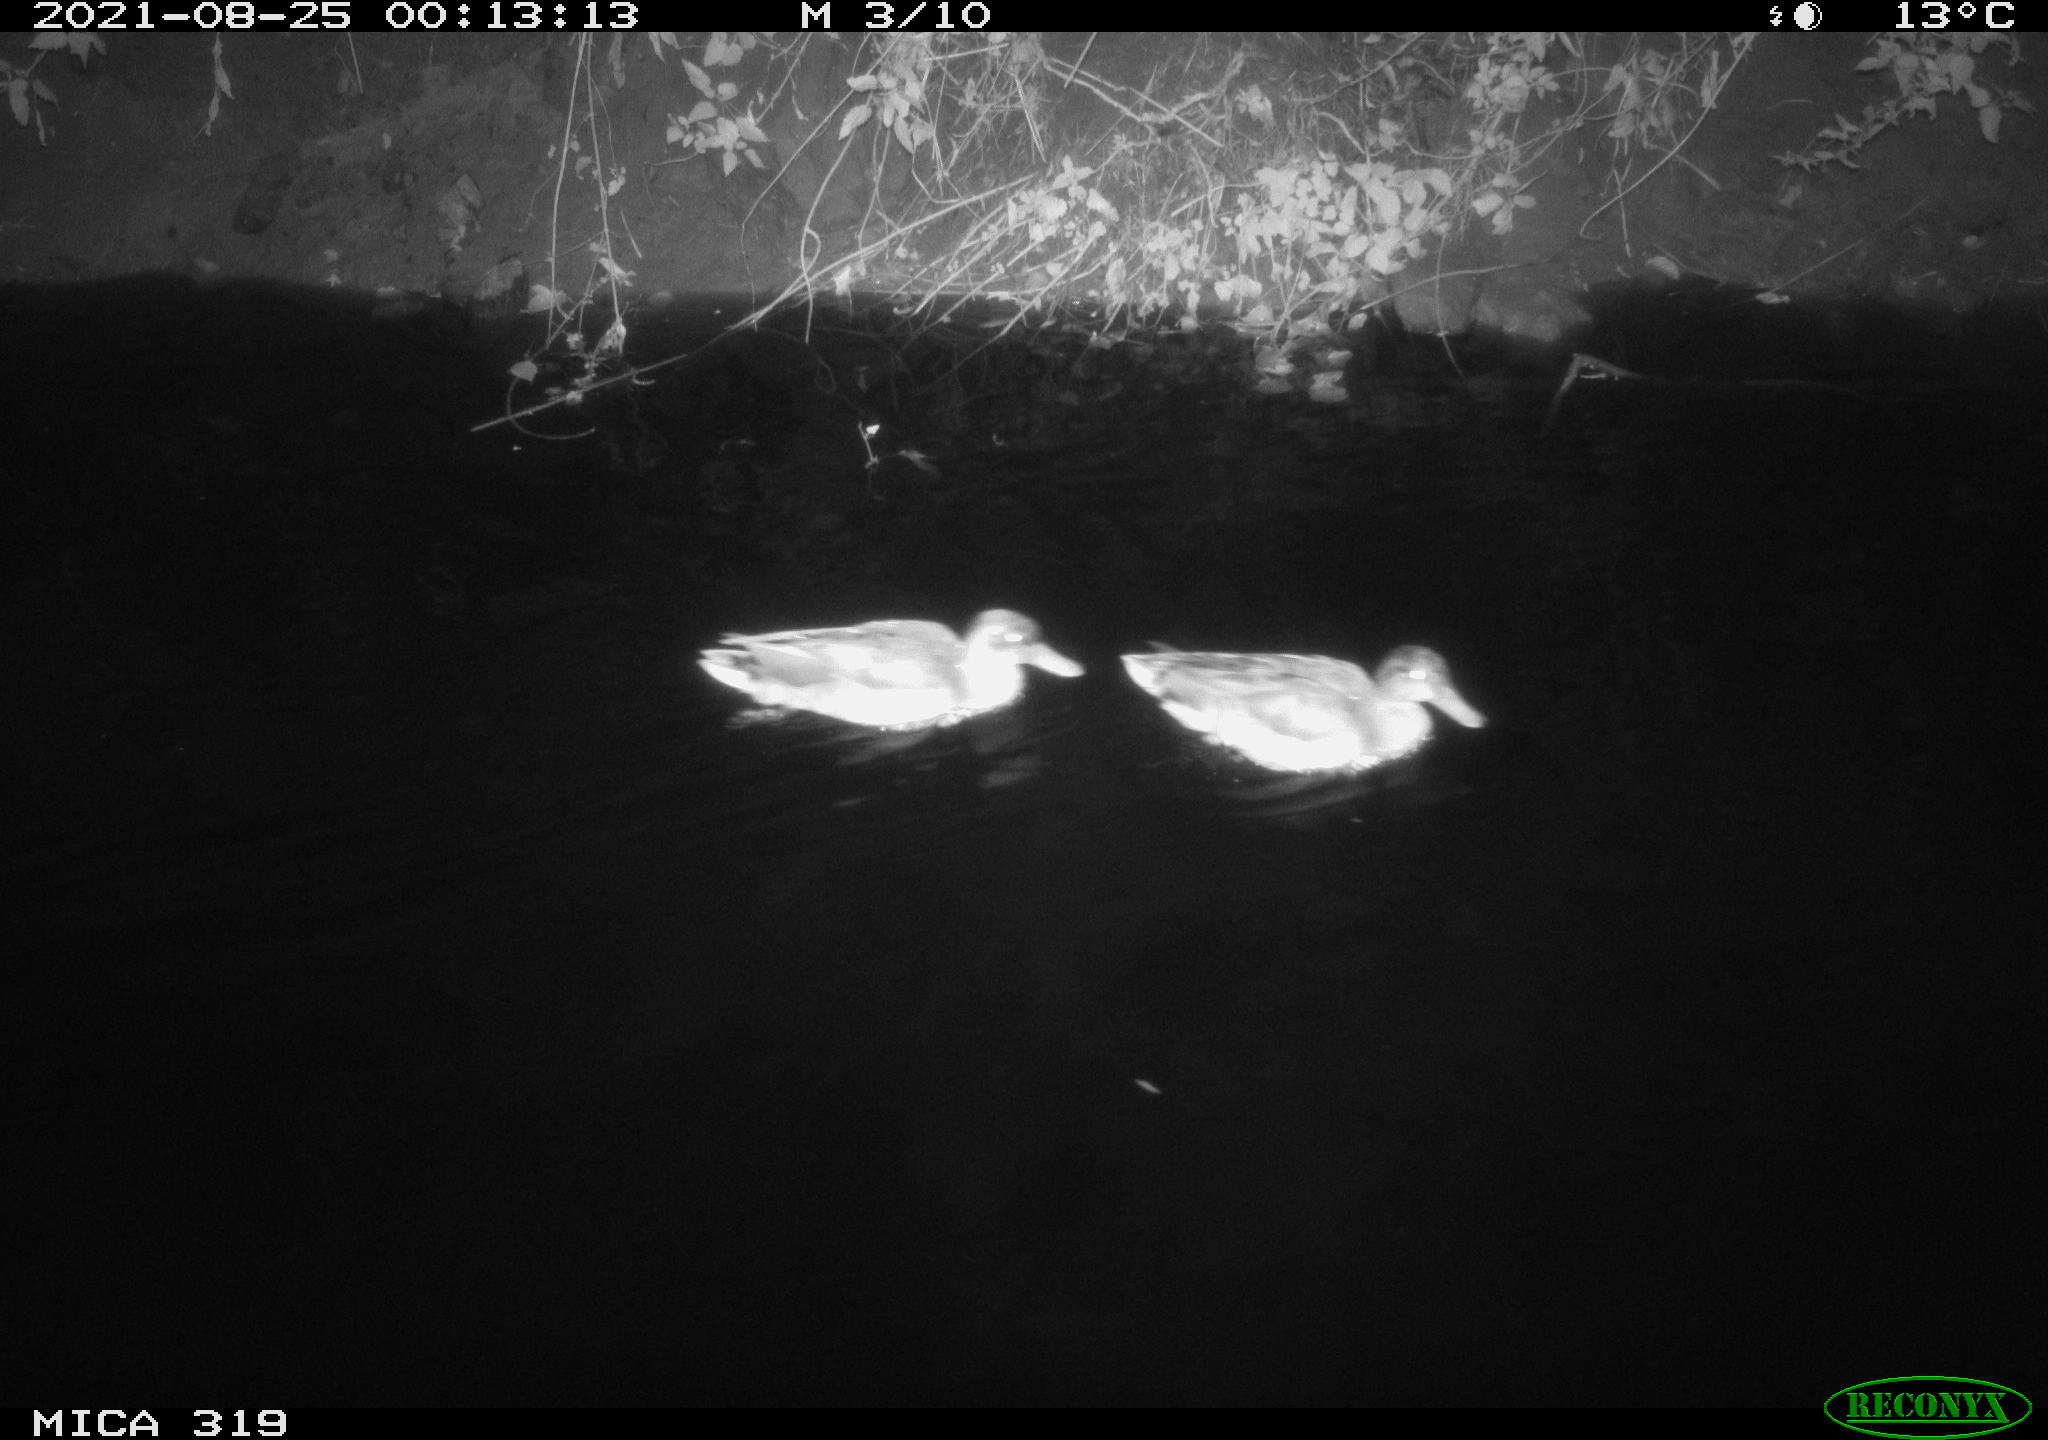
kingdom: Animalia
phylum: Chordata
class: Aves
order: Anseriformes
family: Anatidae
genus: Anas
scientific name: Anas platyrhynchos
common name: Mallard
